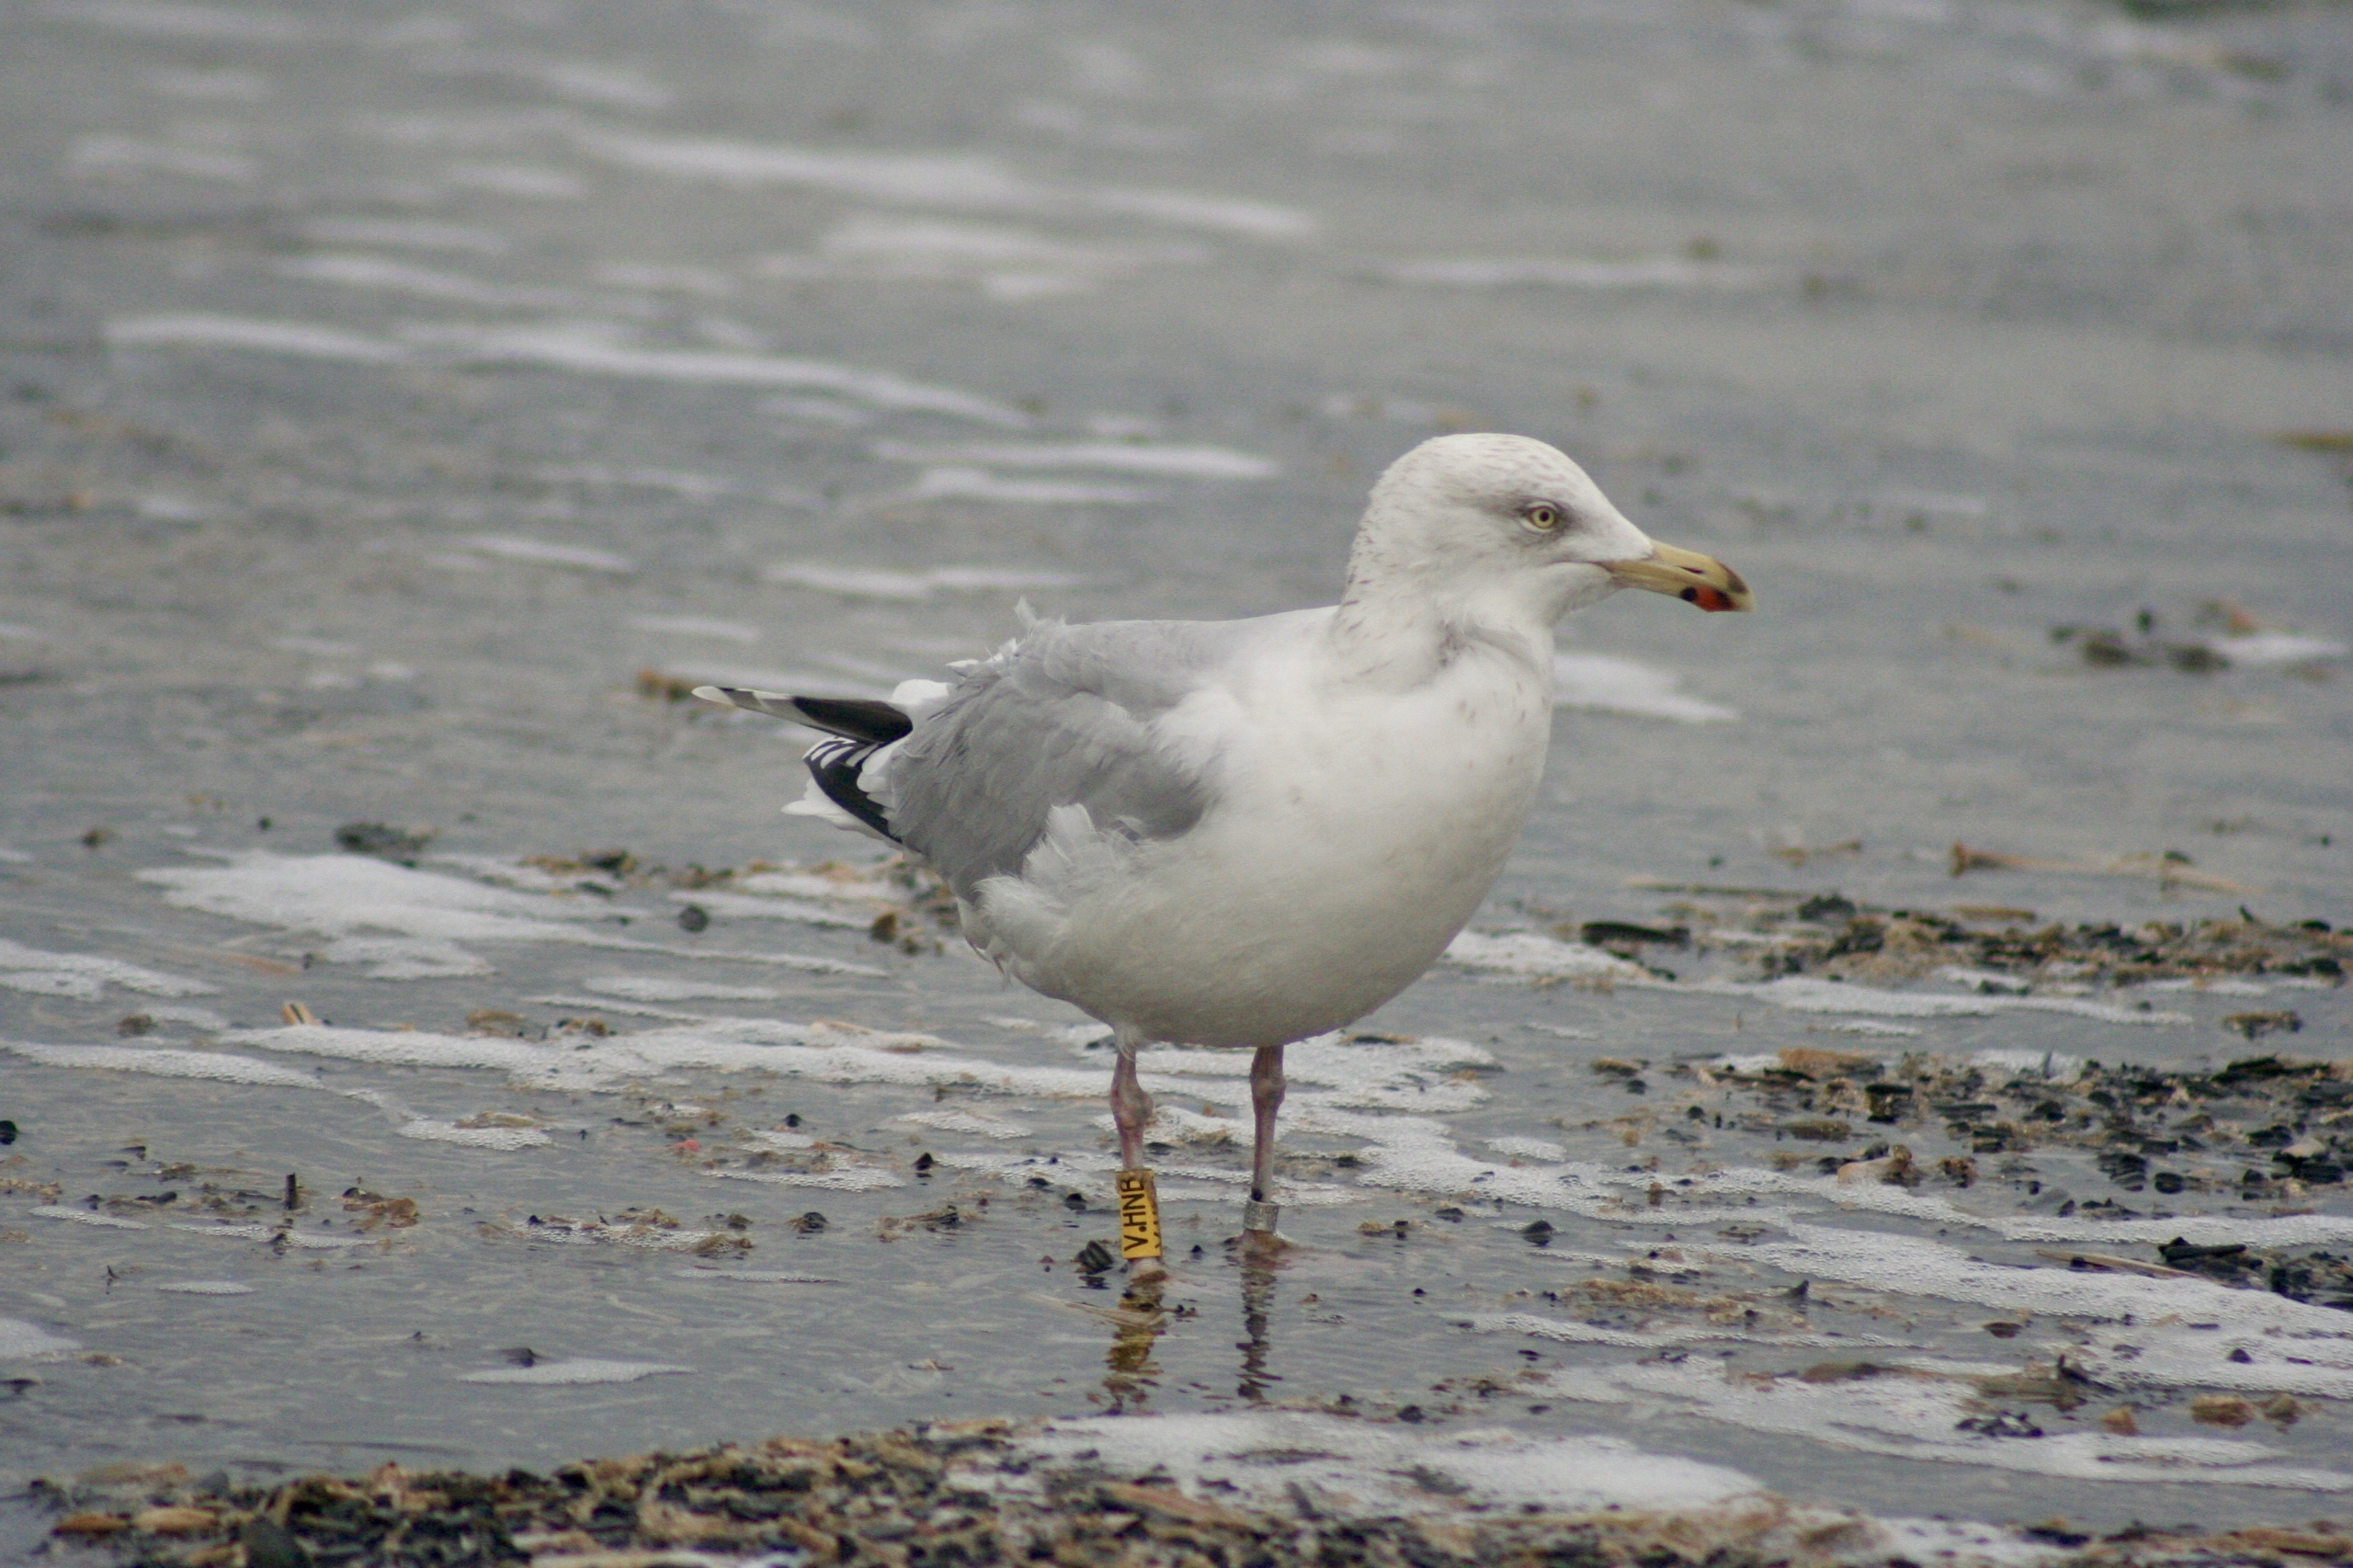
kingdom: Animalia
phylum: Chordata
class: Aves
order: Charadriiformes
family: Laridae
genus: Larus
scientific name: Larus argentatus
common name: Sølvmåge
